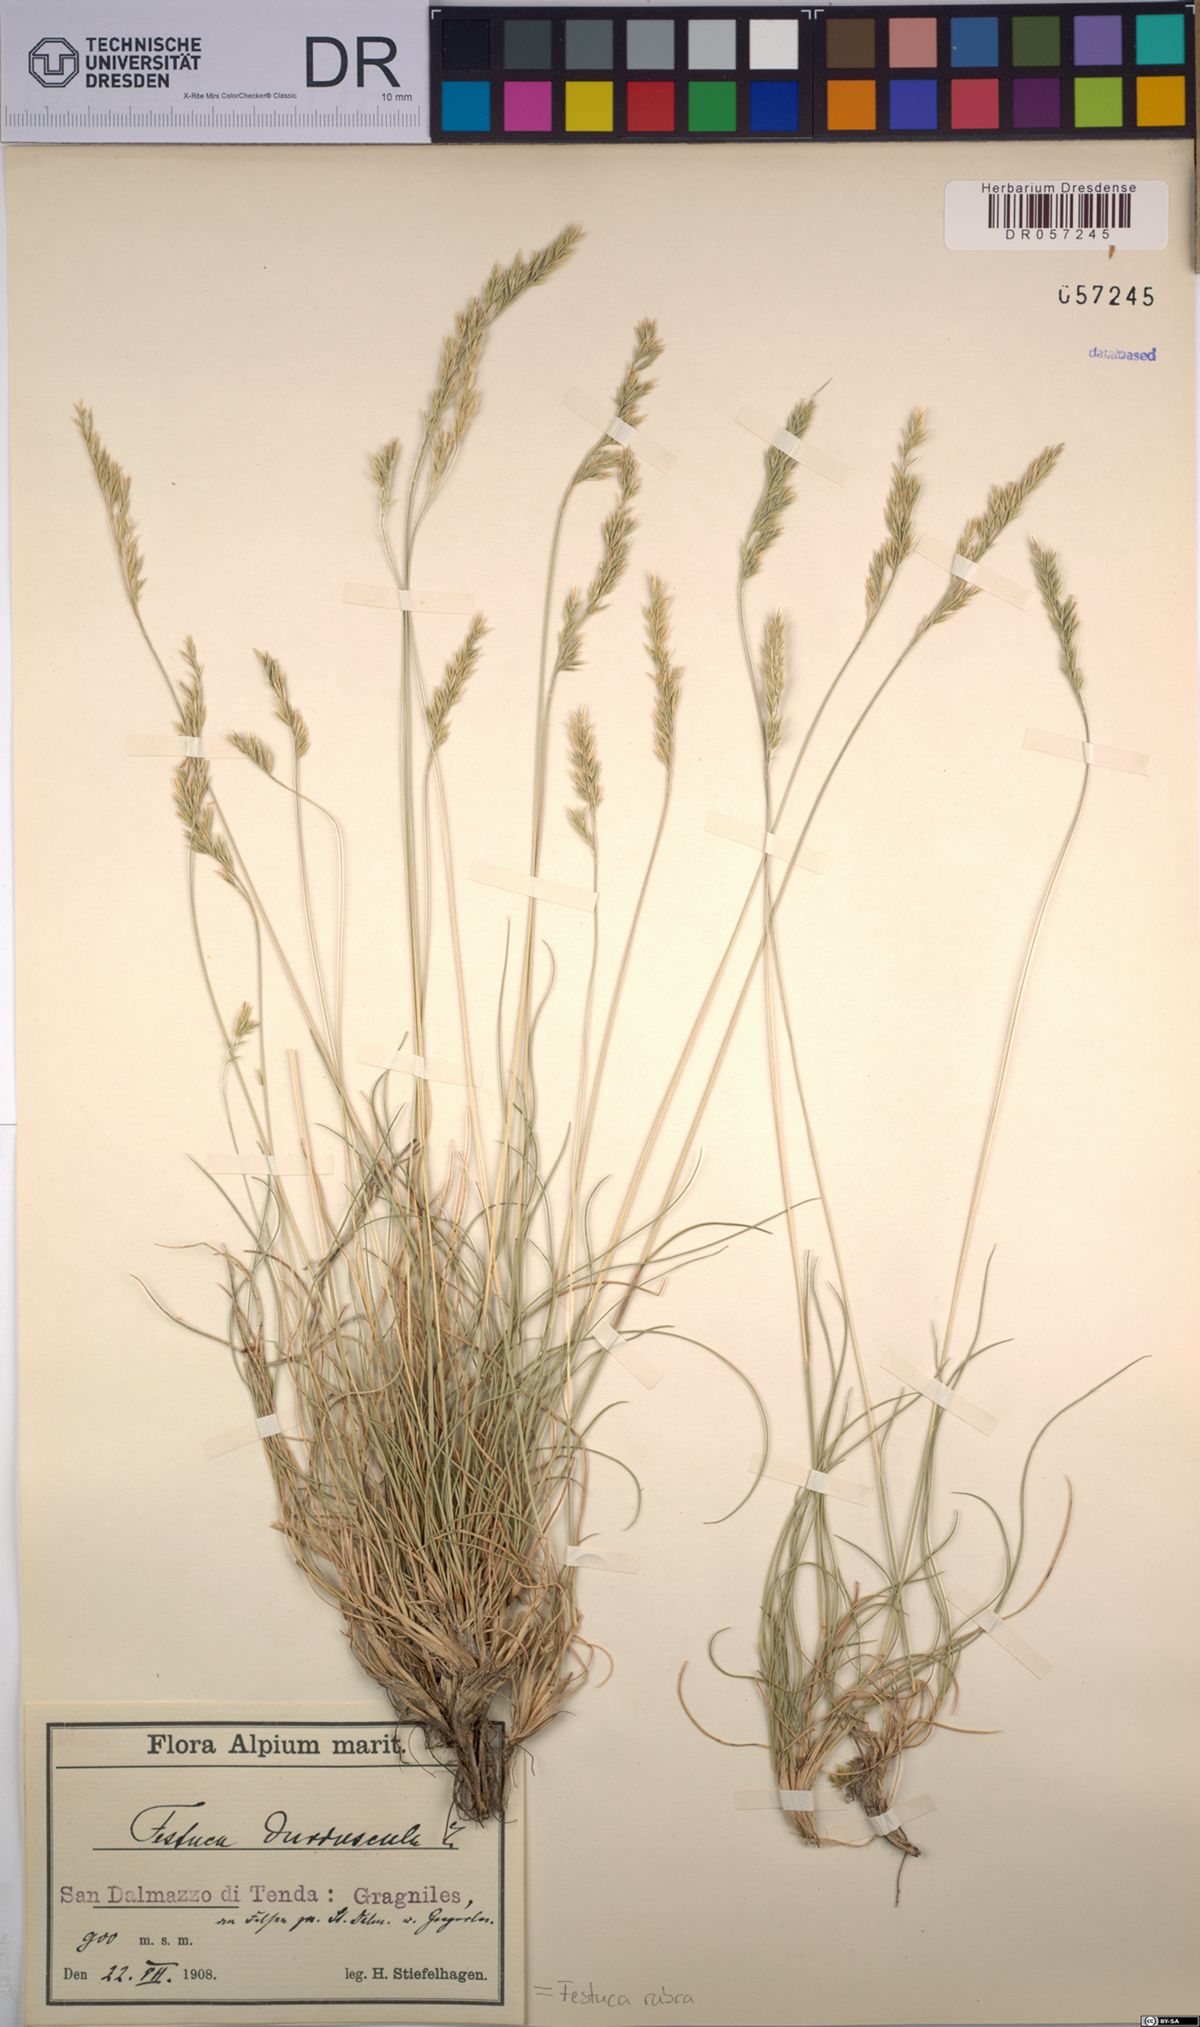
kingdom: Plantae
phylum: Tracheophyta
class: Liliopsida
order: Poales
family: Poaceae
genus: Festuca
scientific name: Festuca rubra
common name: Red fescue
